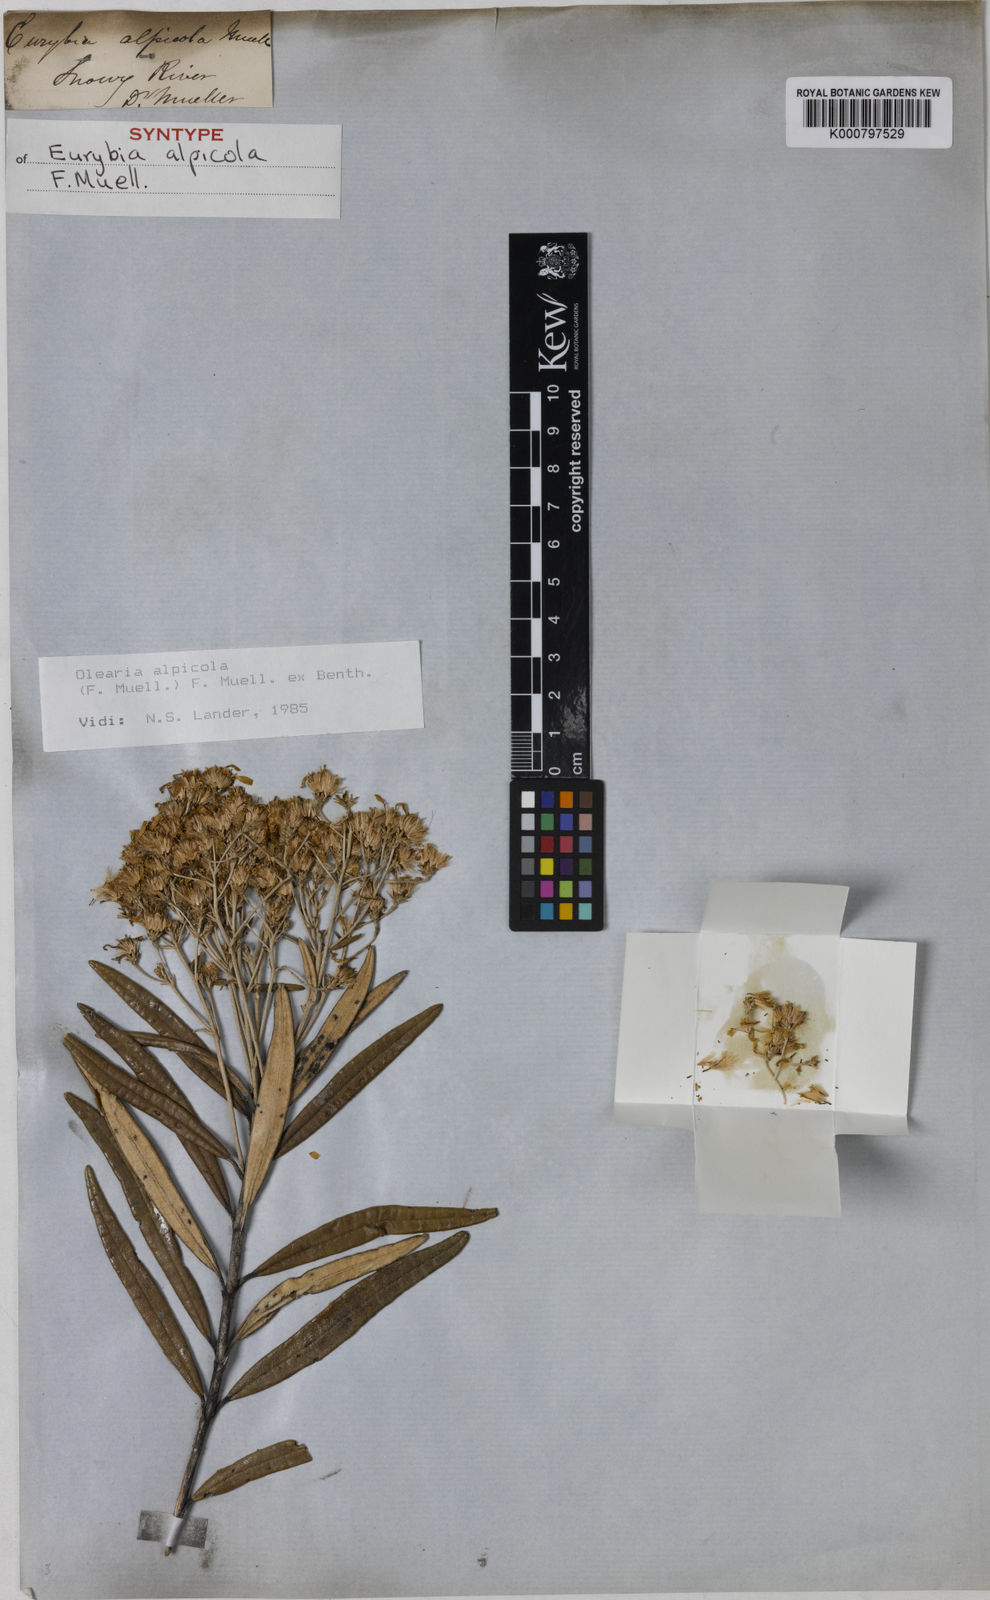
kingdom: Plantae
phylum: Tracheophyta
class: Magnoliopsida
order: Asterales
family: Asteraceae
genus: Olearia
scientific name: Olearia alpicola
